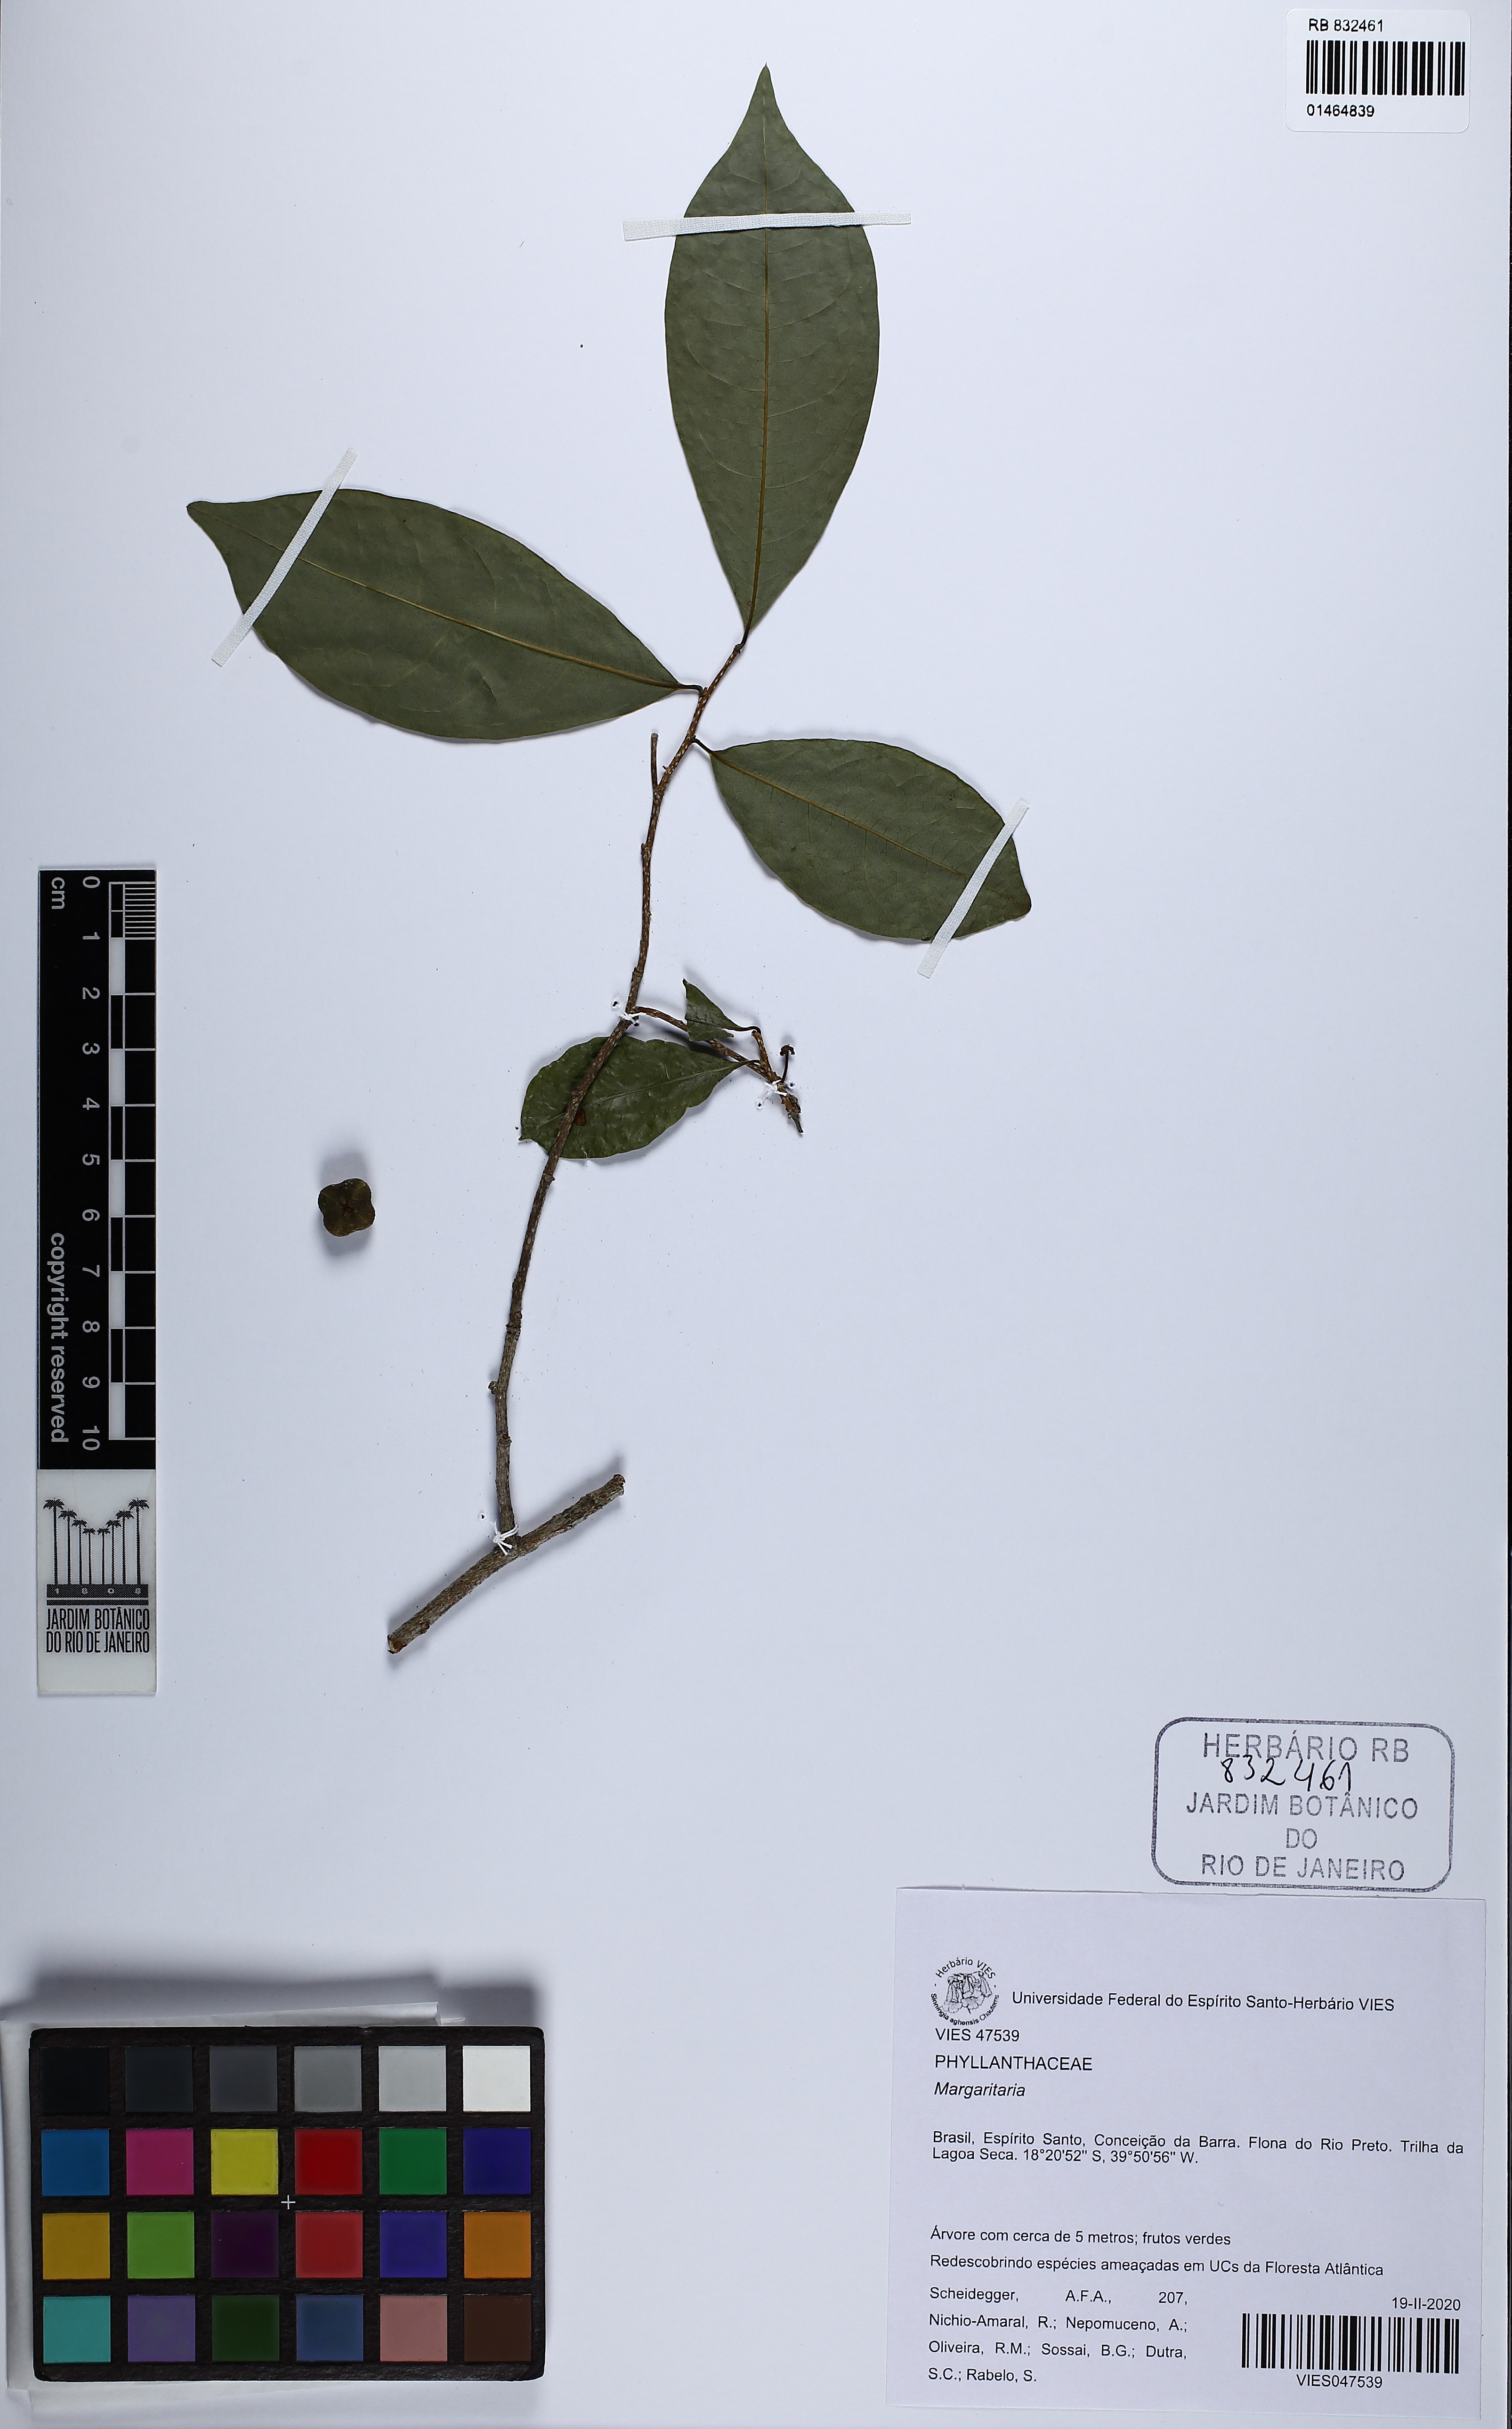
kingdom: Plantae
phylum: Tracheophyta
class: Magnoliopsida
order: Malpighiales
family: Phyllanthaceae
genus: Margaritaria
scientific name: Margaritaria
